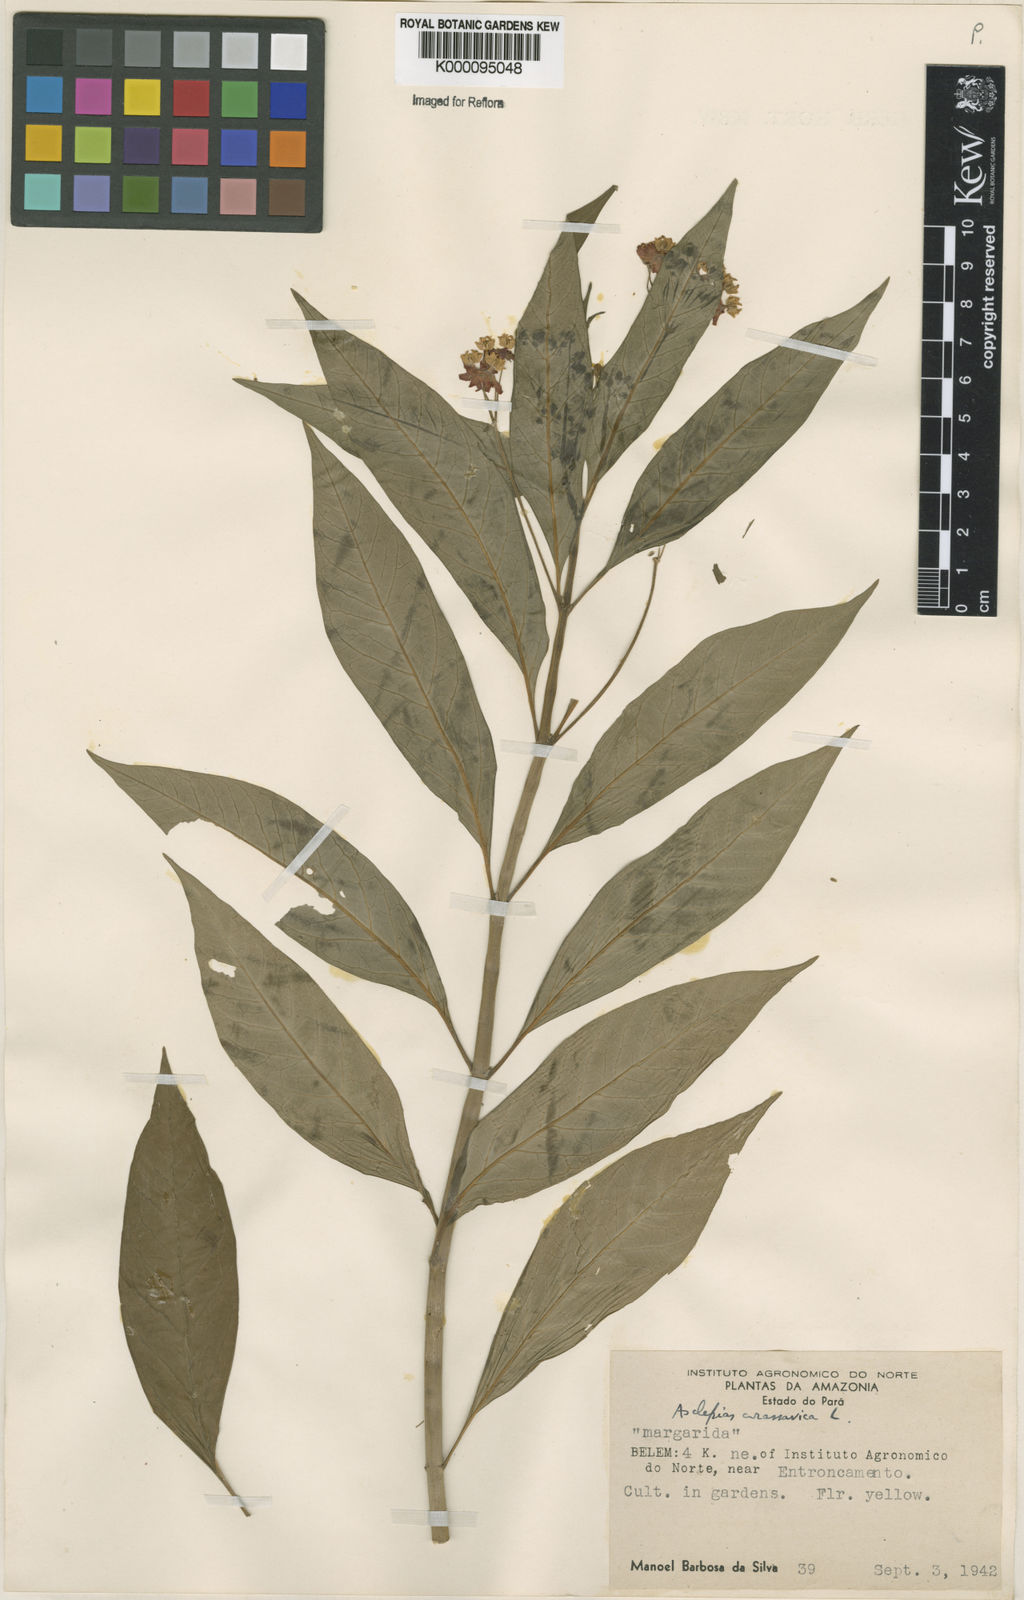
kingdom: Plantae
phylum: Tracheophyta
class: Magnoliopsida
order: Gentianales
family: Apocynaceae
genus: Asclepias
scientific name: Asclepias curassavica
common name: Bloodflower
